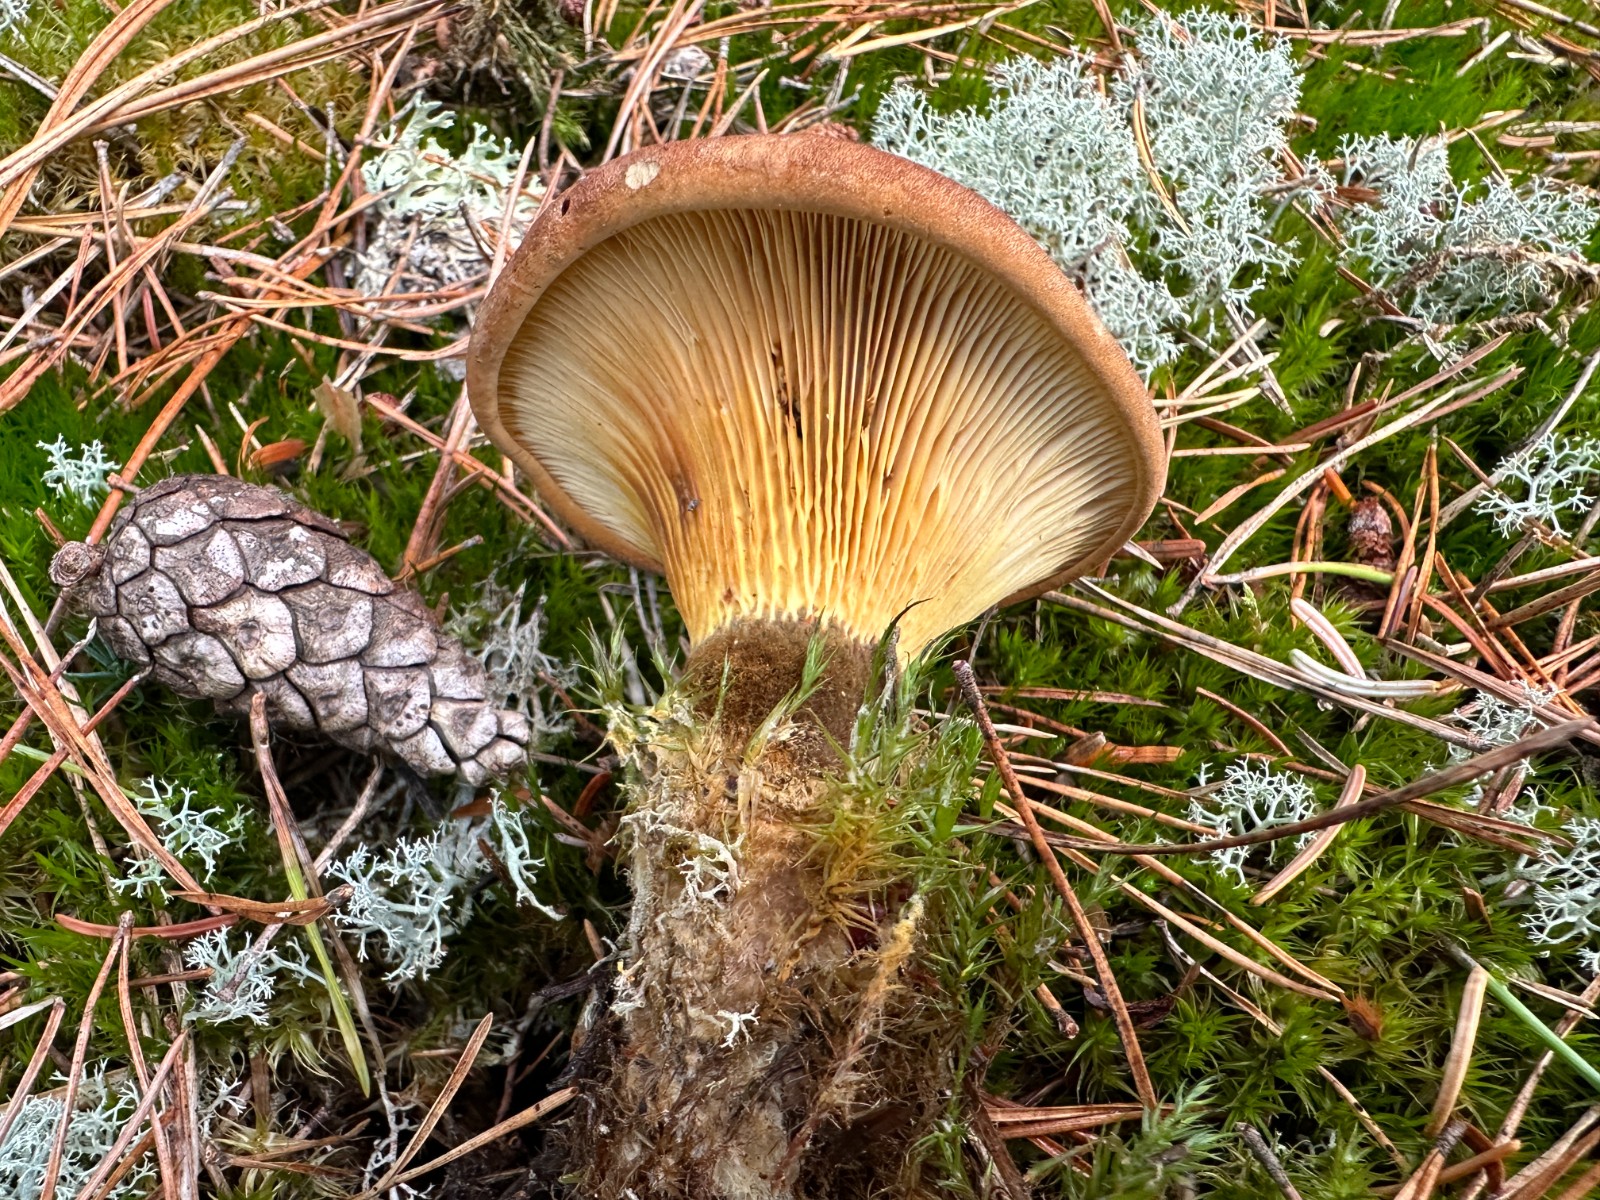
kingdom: Fungi
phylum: Basidiomycota
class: Agaricomycetes
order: Boletales
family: Tapinellaceae
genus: Tapinella
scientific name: Tapinella atrotomentosa
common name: sortfiltet viftesvamp
